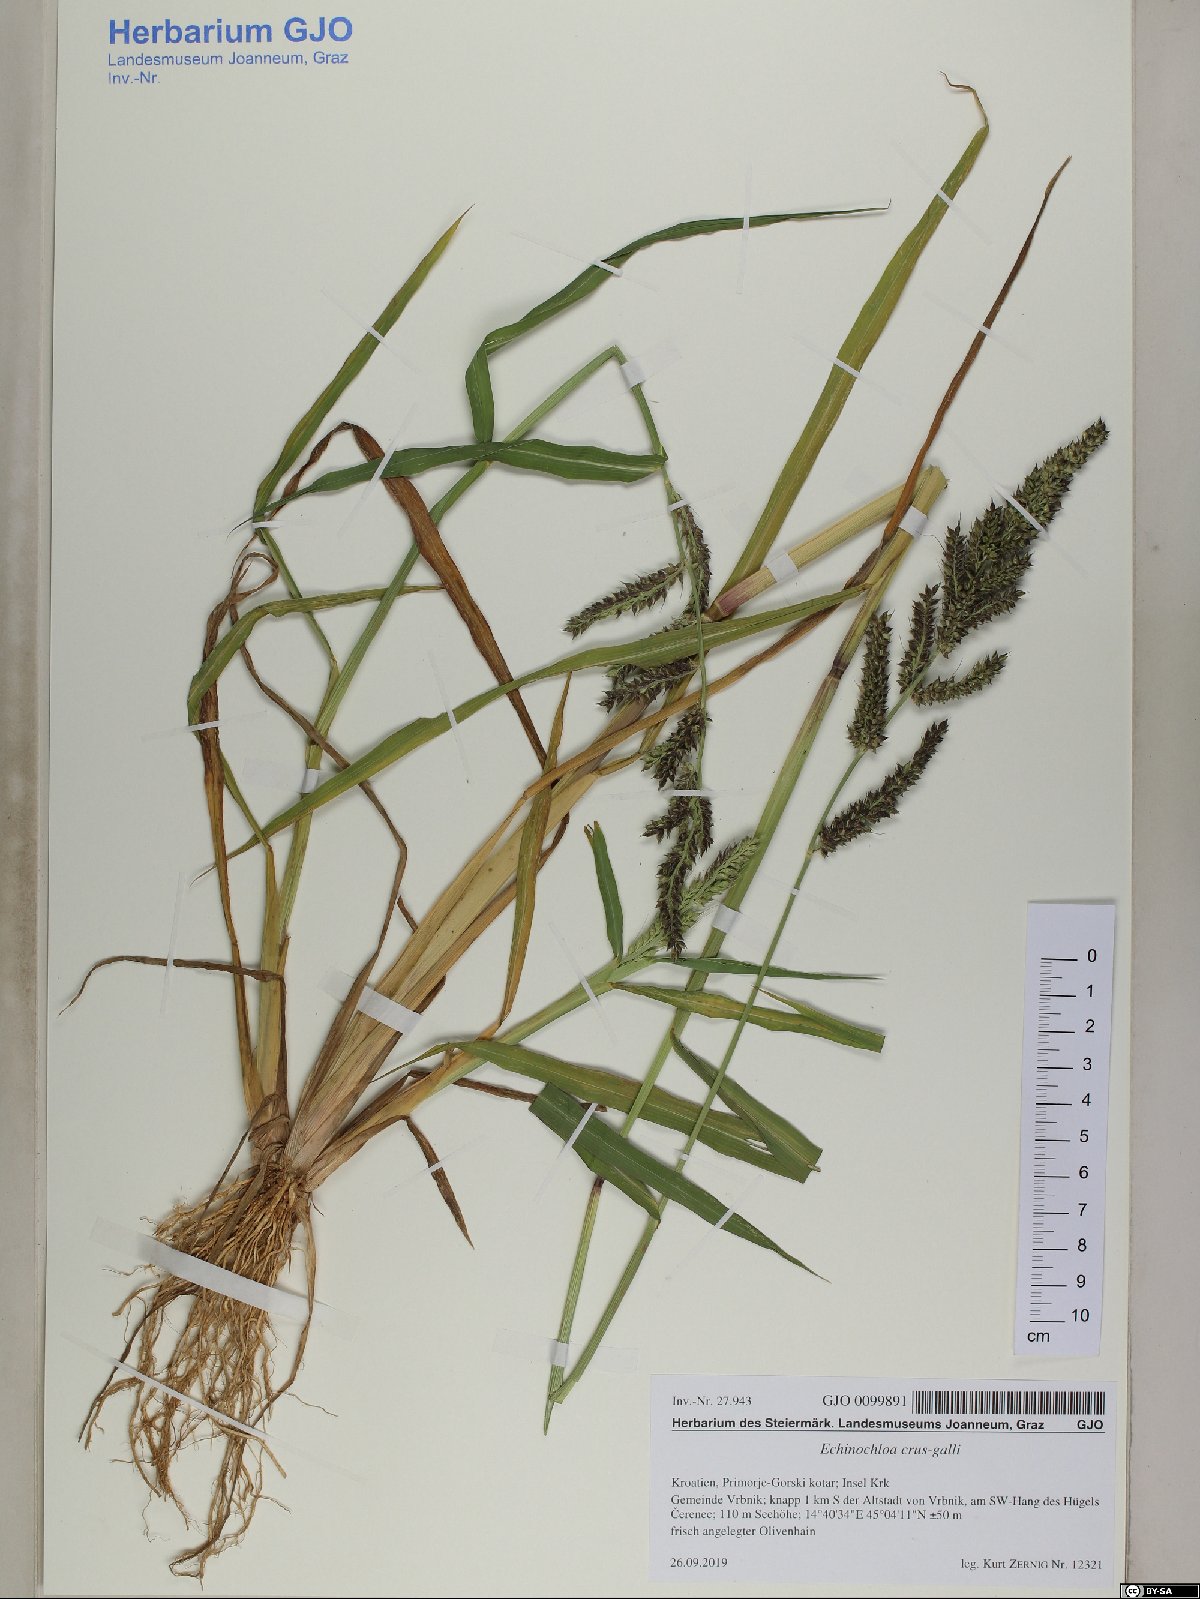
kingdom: Plantae
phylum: Tracheophyta
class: Liliopsida
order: Poales
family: Poaceae
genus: Echinochloa
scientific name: Echinochloa crus-galli
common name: Cockspur
